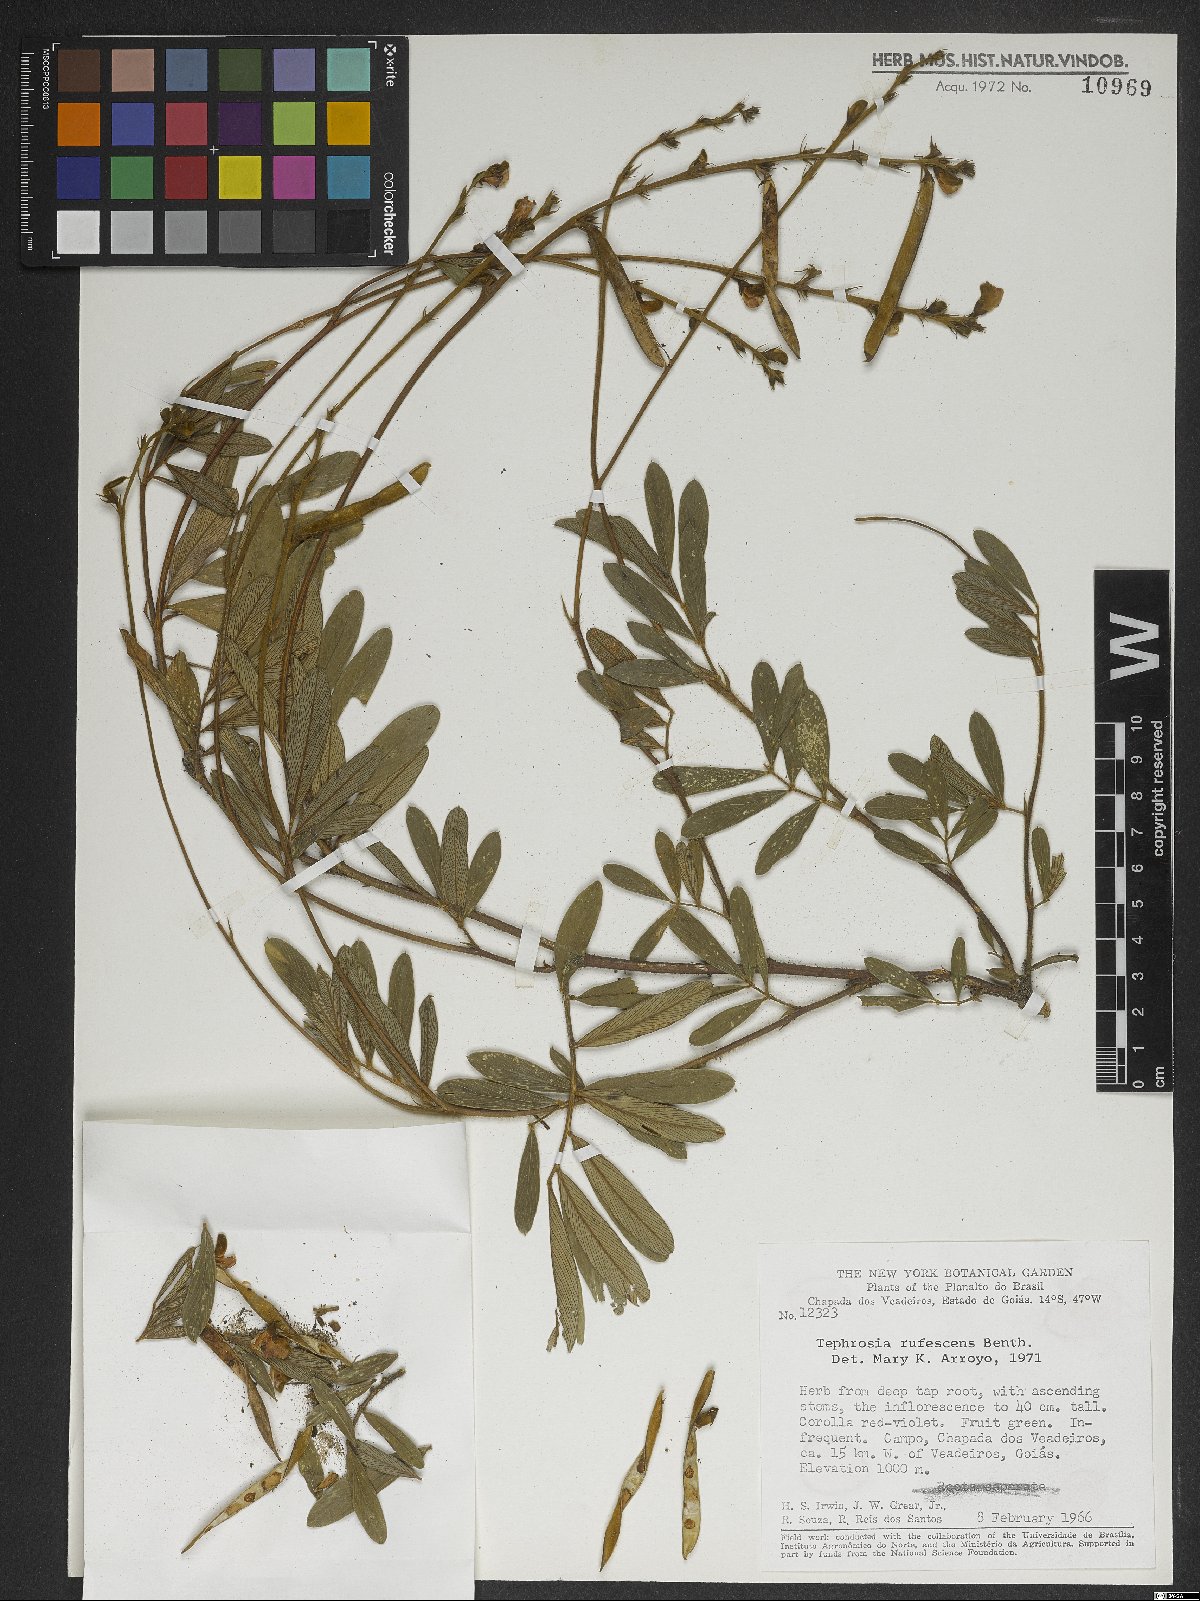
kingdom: Plantae
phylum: Tracheophyta
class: Magnoliopsida
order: Fabales
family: Fabaceae
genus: Tephrosia
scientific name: Tephrosia adunca
